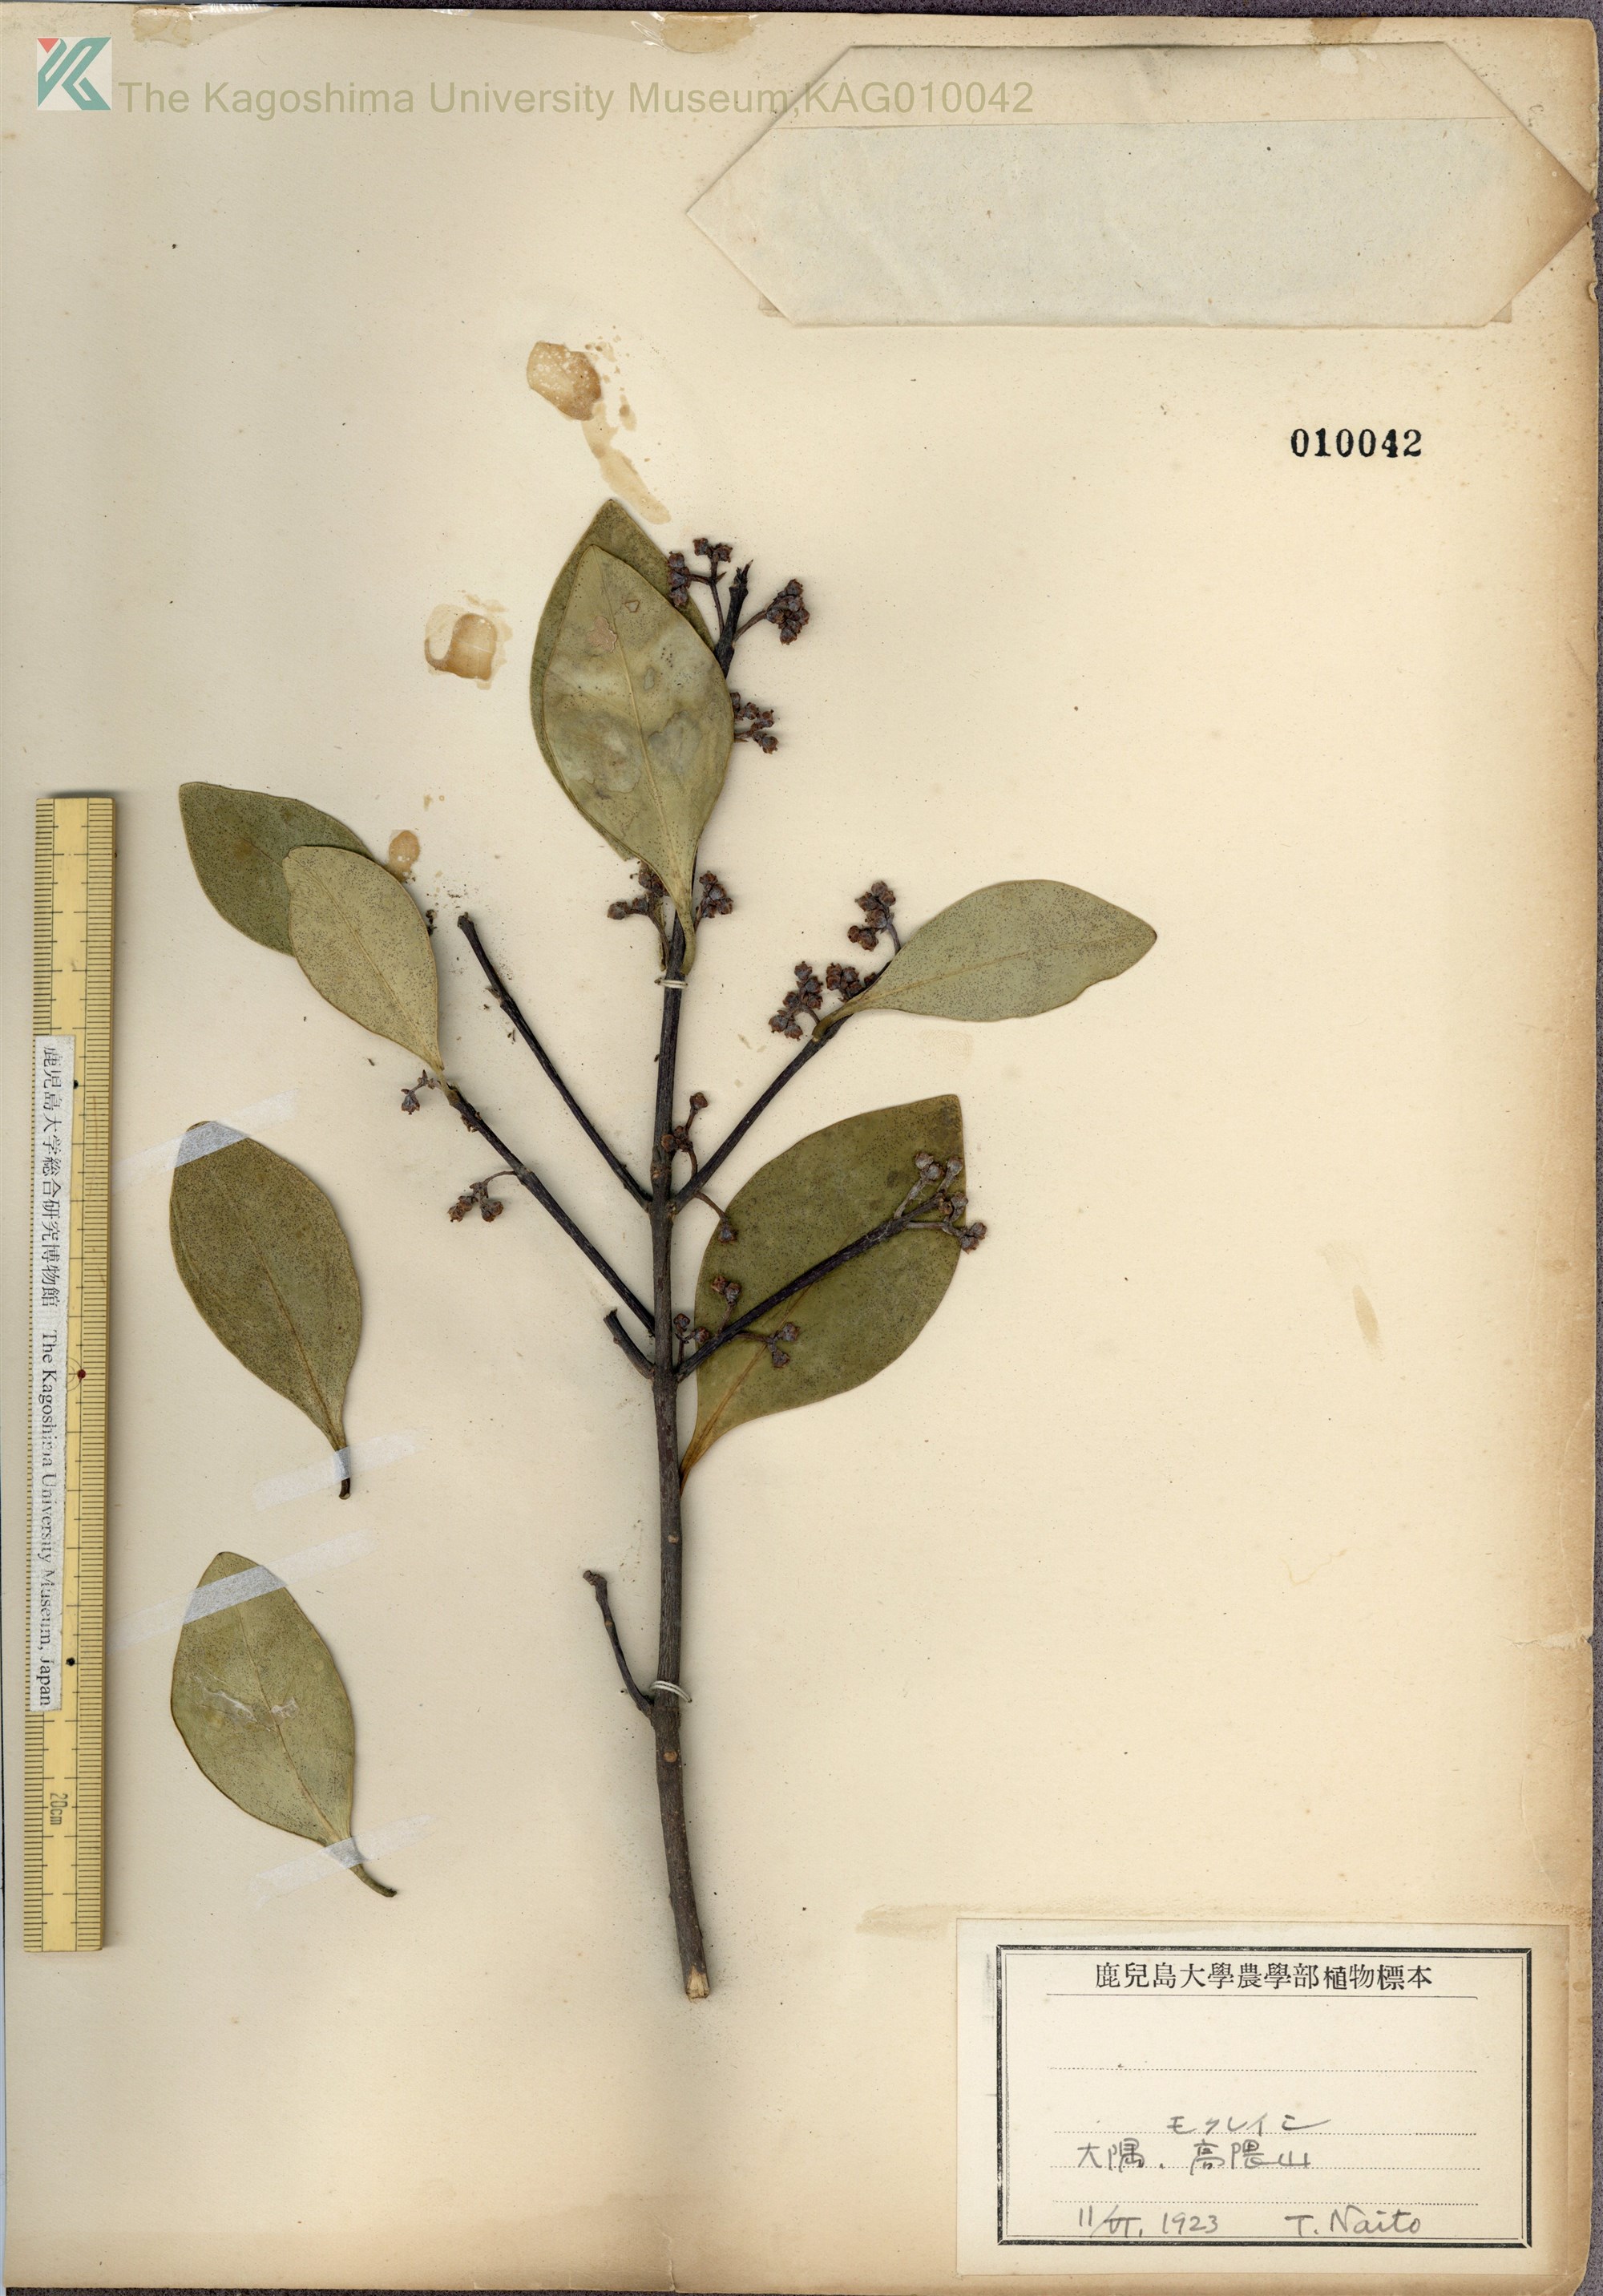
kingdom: Plantae
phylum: Tracheophyta
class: Magnoliopsida
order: Celastrales
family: Celastraceae
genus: Microtropis
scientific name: Microtropis japonica
